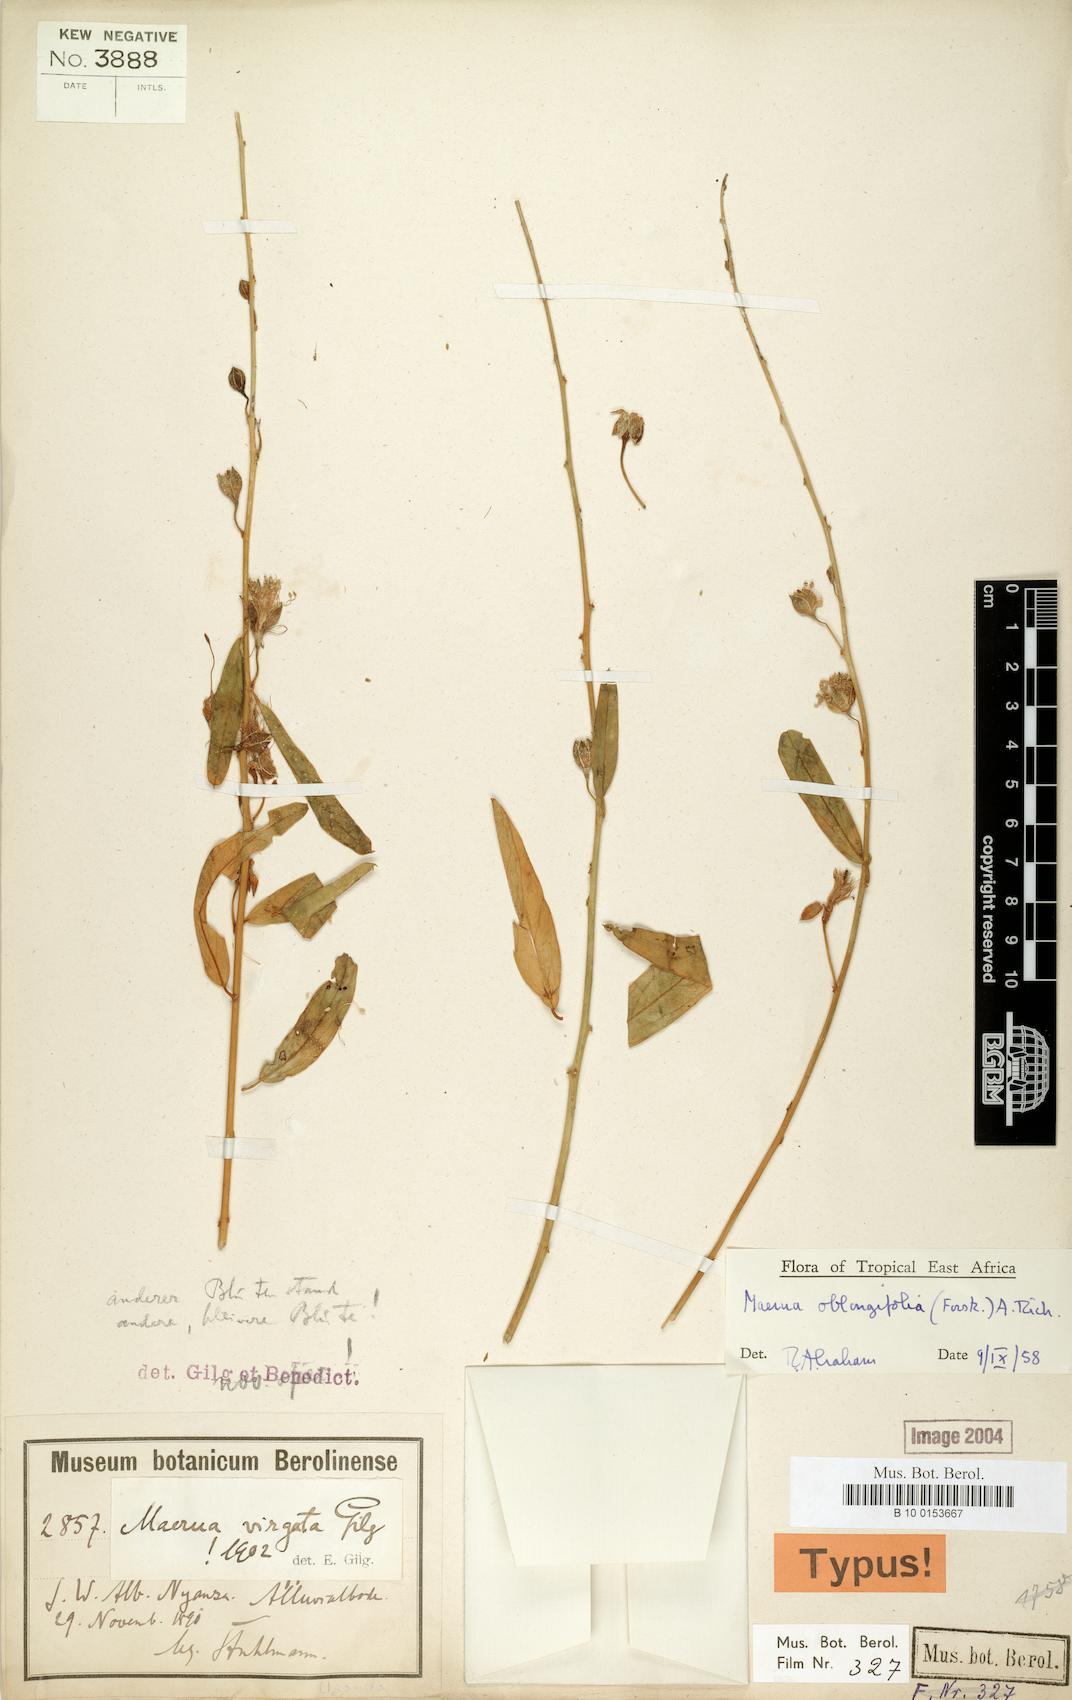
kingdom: Plantae
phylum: Tracheophyta
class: Magnoliopsida
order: Brassicales
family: Capparaceae
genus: Maerua
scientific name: Maerua oblongifolia
